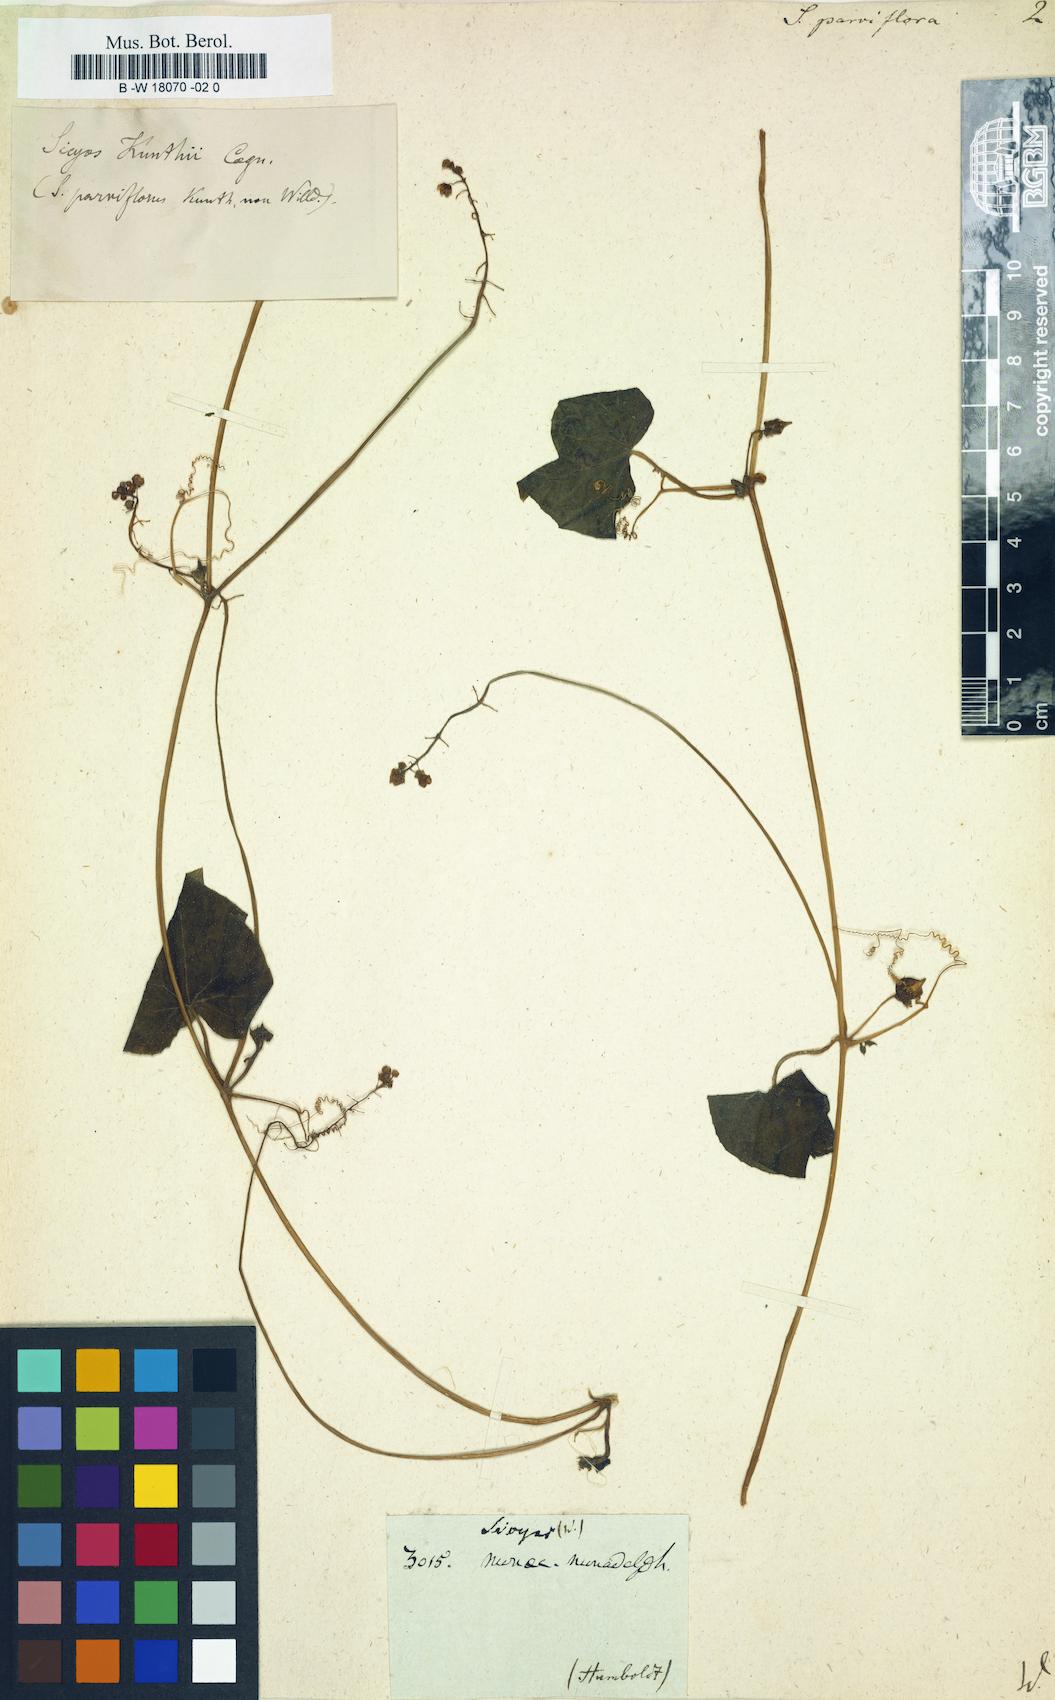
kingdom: Plantae
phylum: Tracheophyta
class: Magnoliopsida
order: Cucurbitales
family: Cucurbitaceae
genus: Sicyos
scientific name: Sicyos parviflorus
